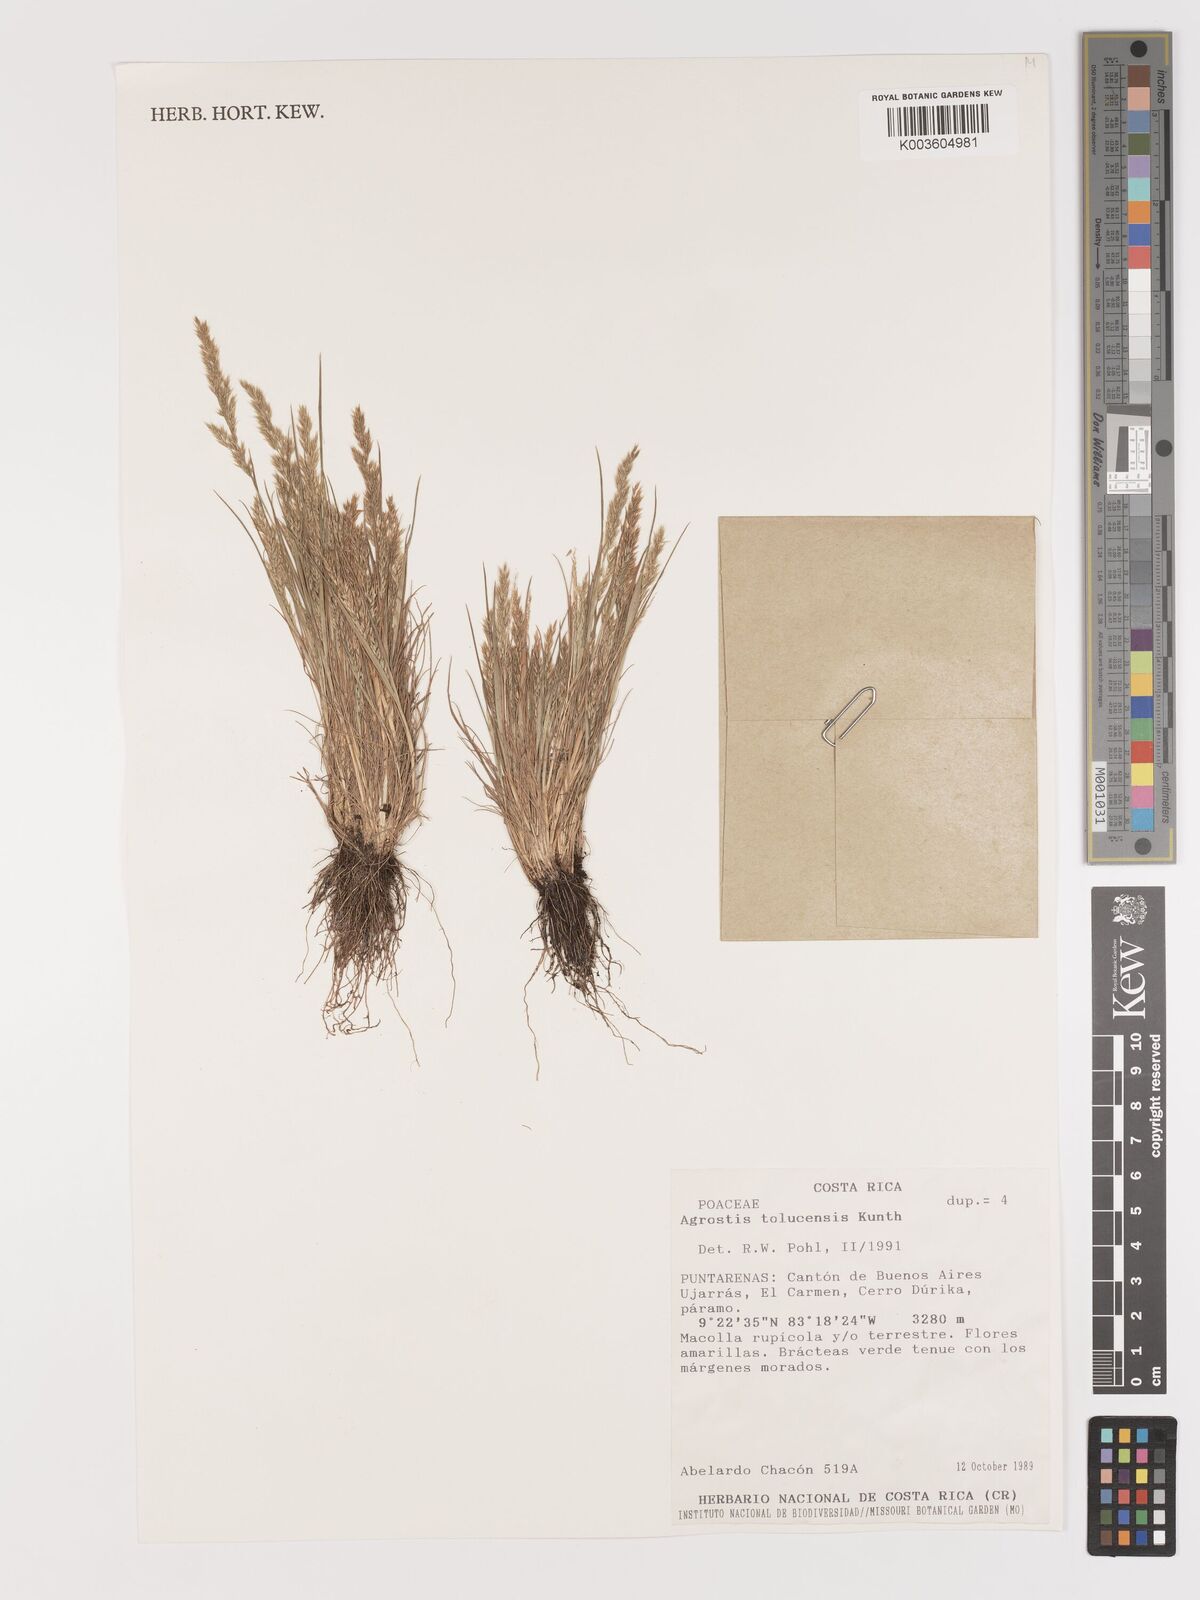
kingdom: Plantae
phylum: Tracheophyta
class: Liliopsida
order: Poales
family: Poaceae
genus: Agrostis
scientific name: Agrostis tolucensis
